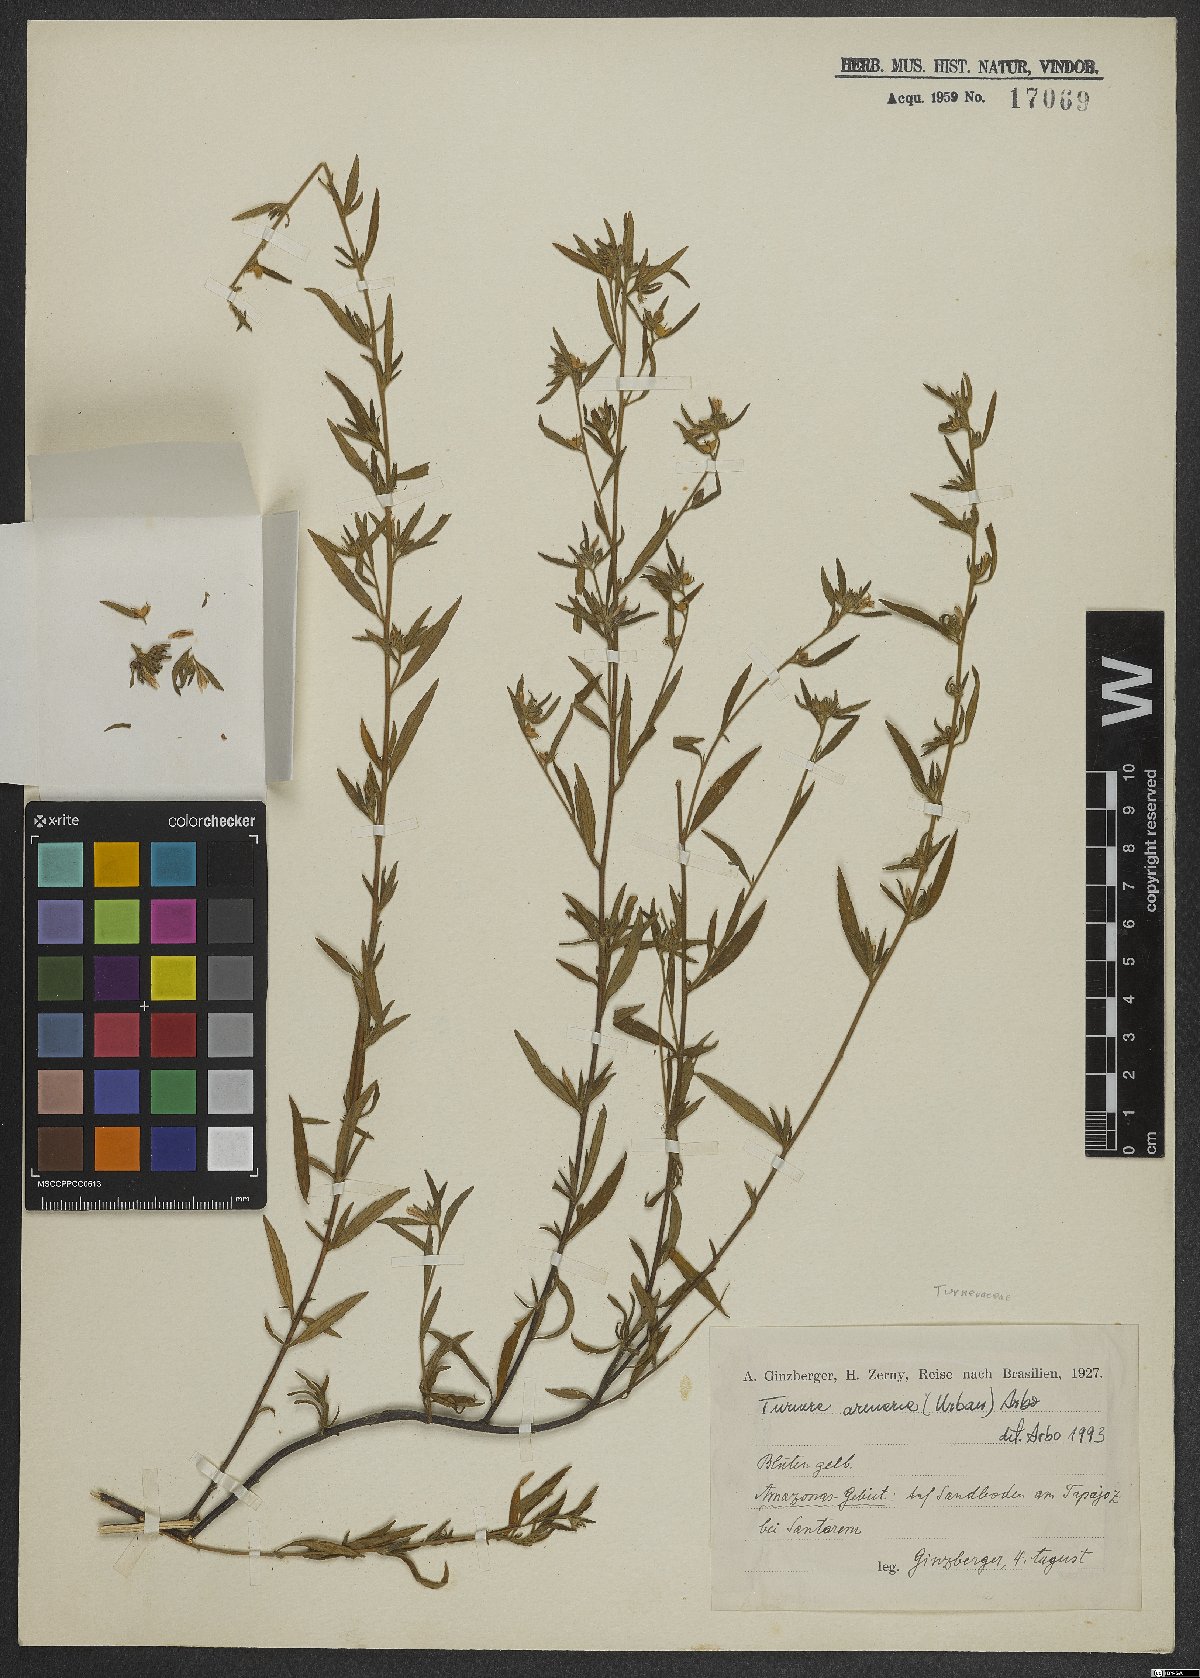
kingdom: Plantae
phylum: Tracheophyta
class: Magnoliopsida
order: Malpighiales
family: Turneraceae
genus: Turnera
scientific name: Turnera arenaria
